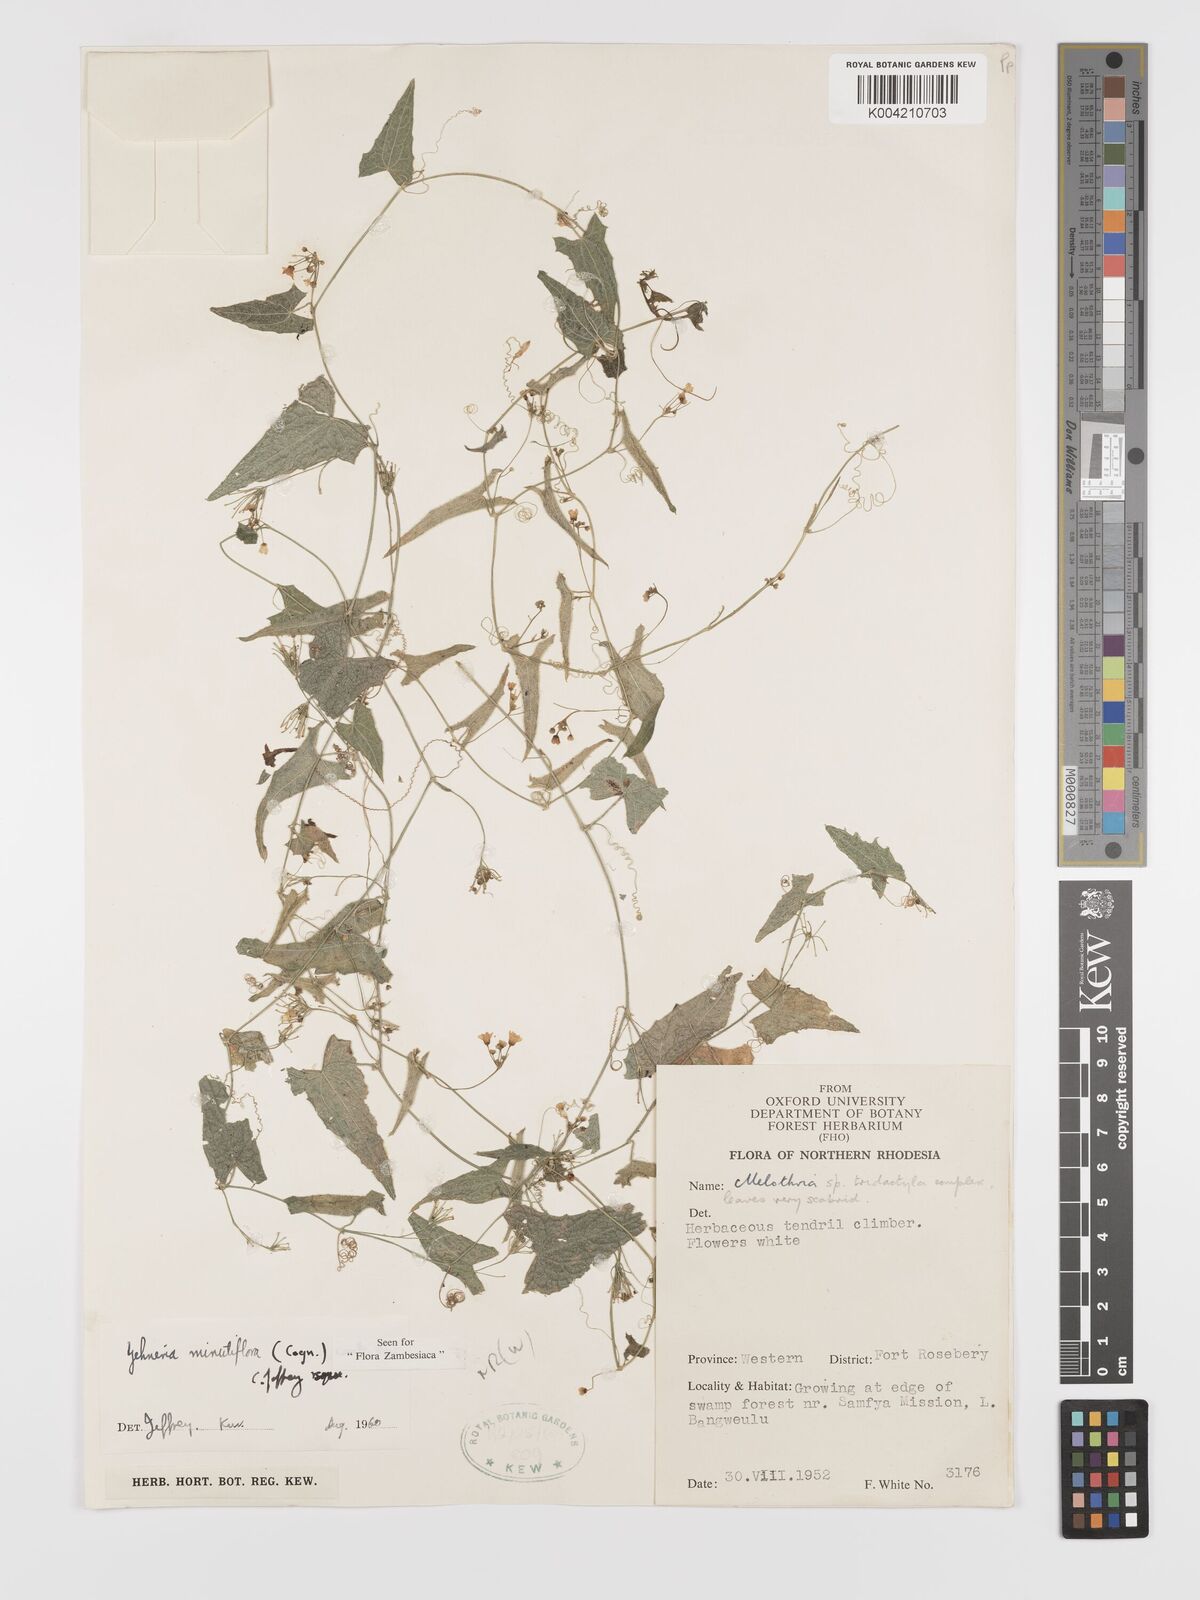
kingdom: Plantae
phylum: Tracheophyta
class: Magnoliopsida
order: Cucurbitales
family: Cucurbitaceae
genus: Zehneria
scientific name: Zehneria minutiflora
